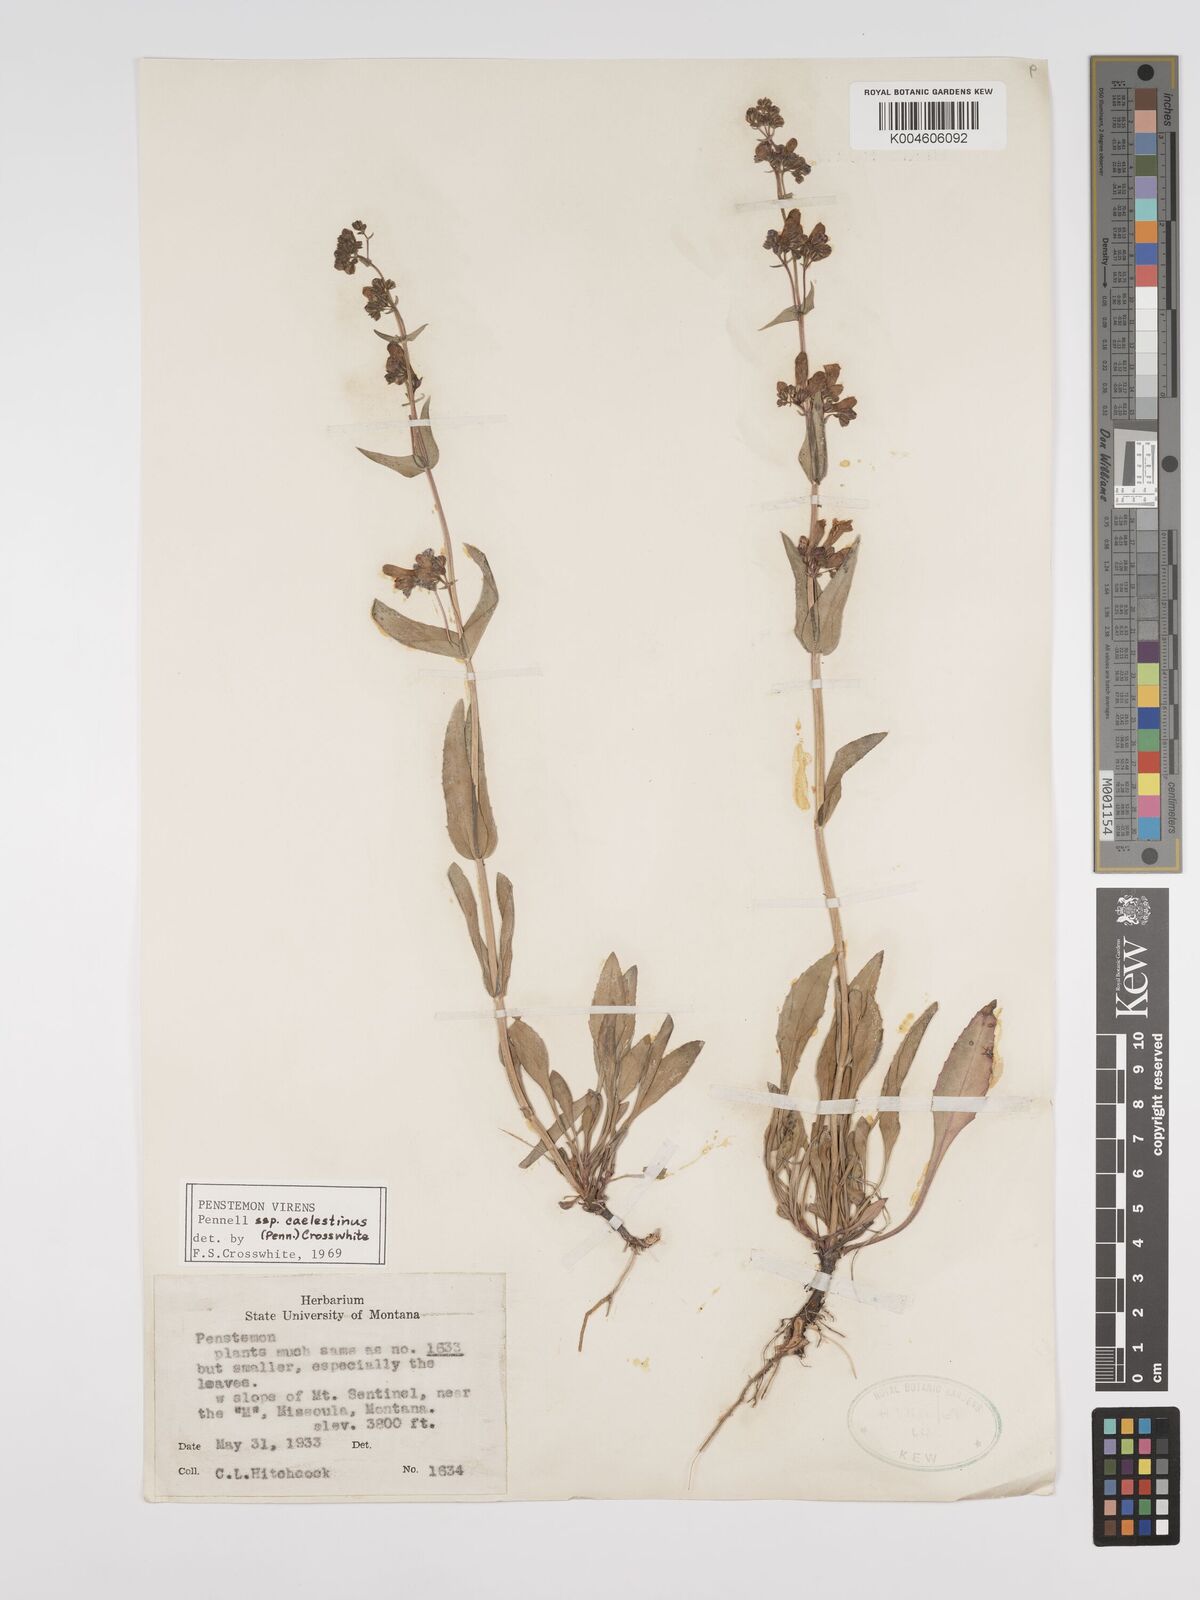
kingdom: Plantae
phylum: Tracheophyta
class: Magnoliopsida
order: Lamiales
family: Plantaginaceae
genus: Penstemon
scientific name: Penstemon virens
